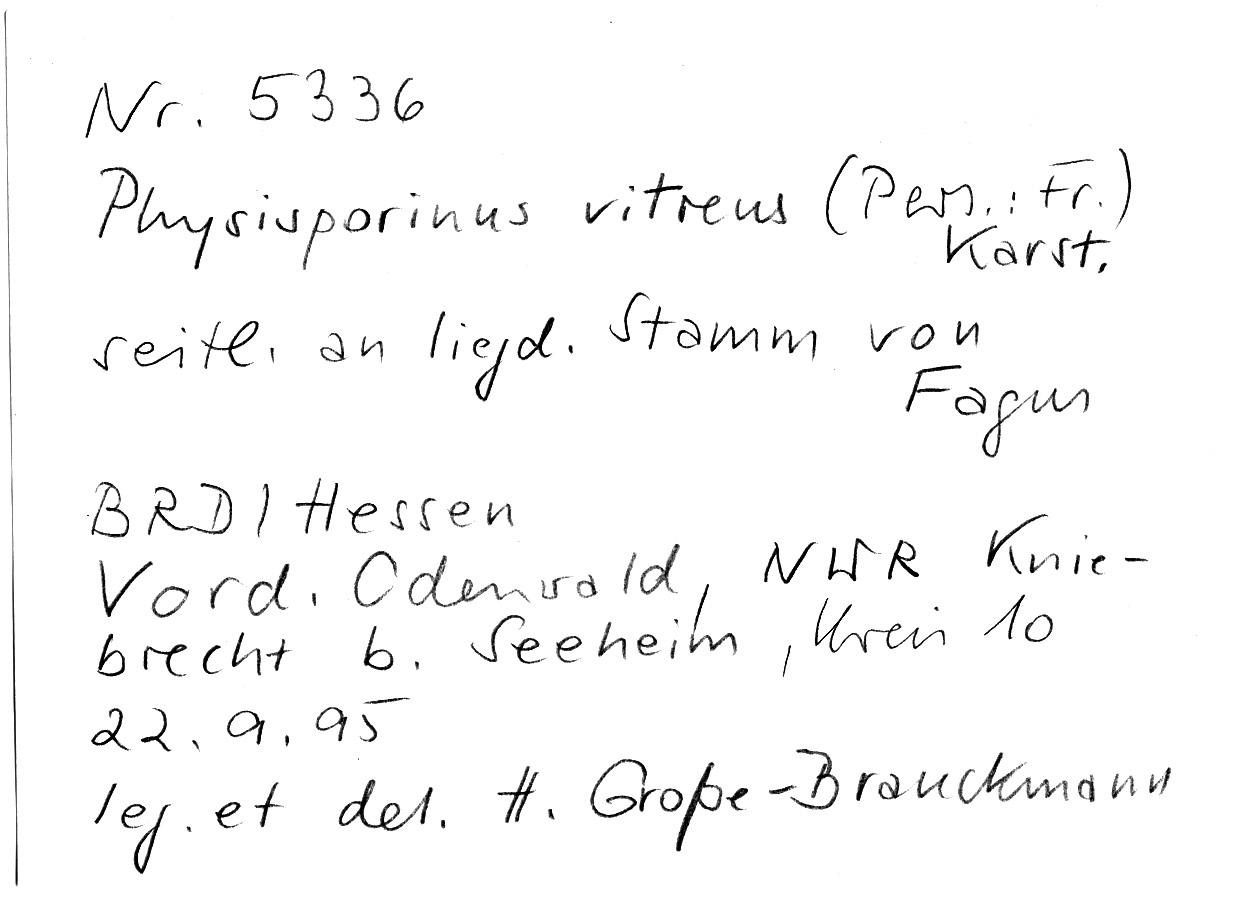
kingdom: Fungi
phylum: Basidiomycota
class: Agaricomycetes
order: Polyporales
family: Meruliaceae
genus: Physisporinus
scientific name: Physisporinus vitreus
